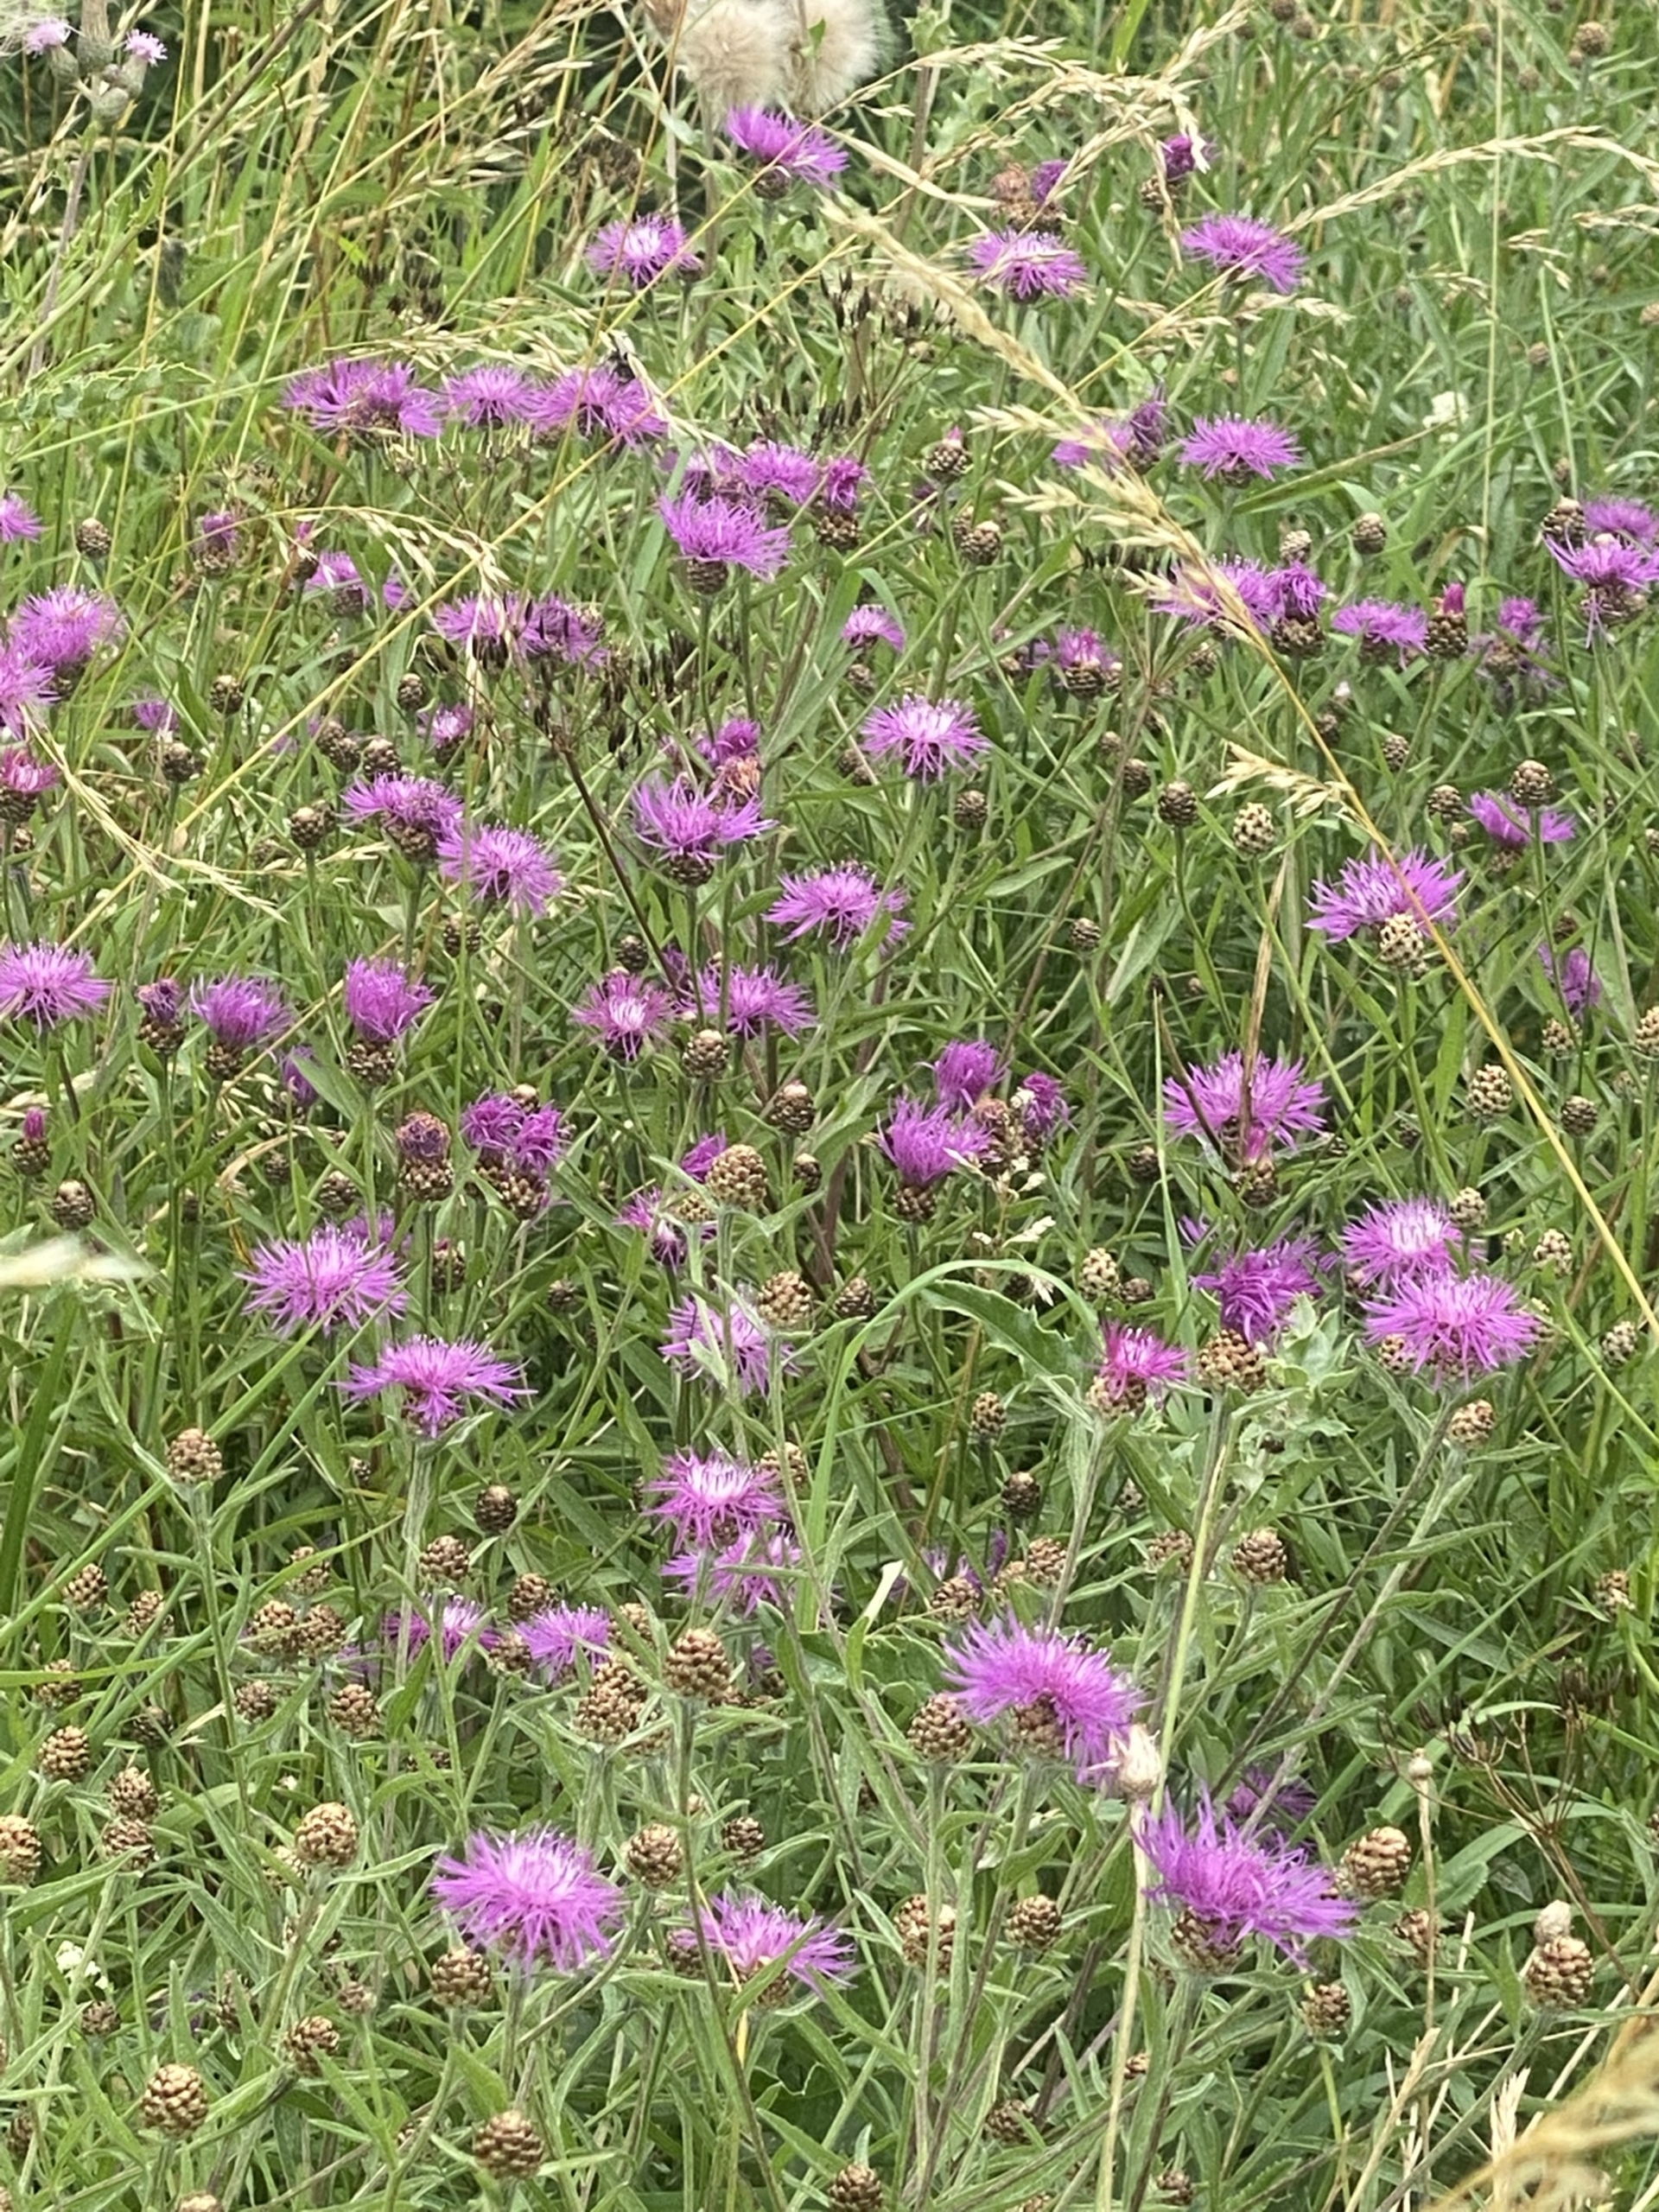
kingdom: Plantae
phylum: Tracheophyta
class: Magnoliopsida
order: Asterales
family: Asteraceae
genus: Centaurea
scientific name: Centaurea jacea
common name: Almindelig knopurt
